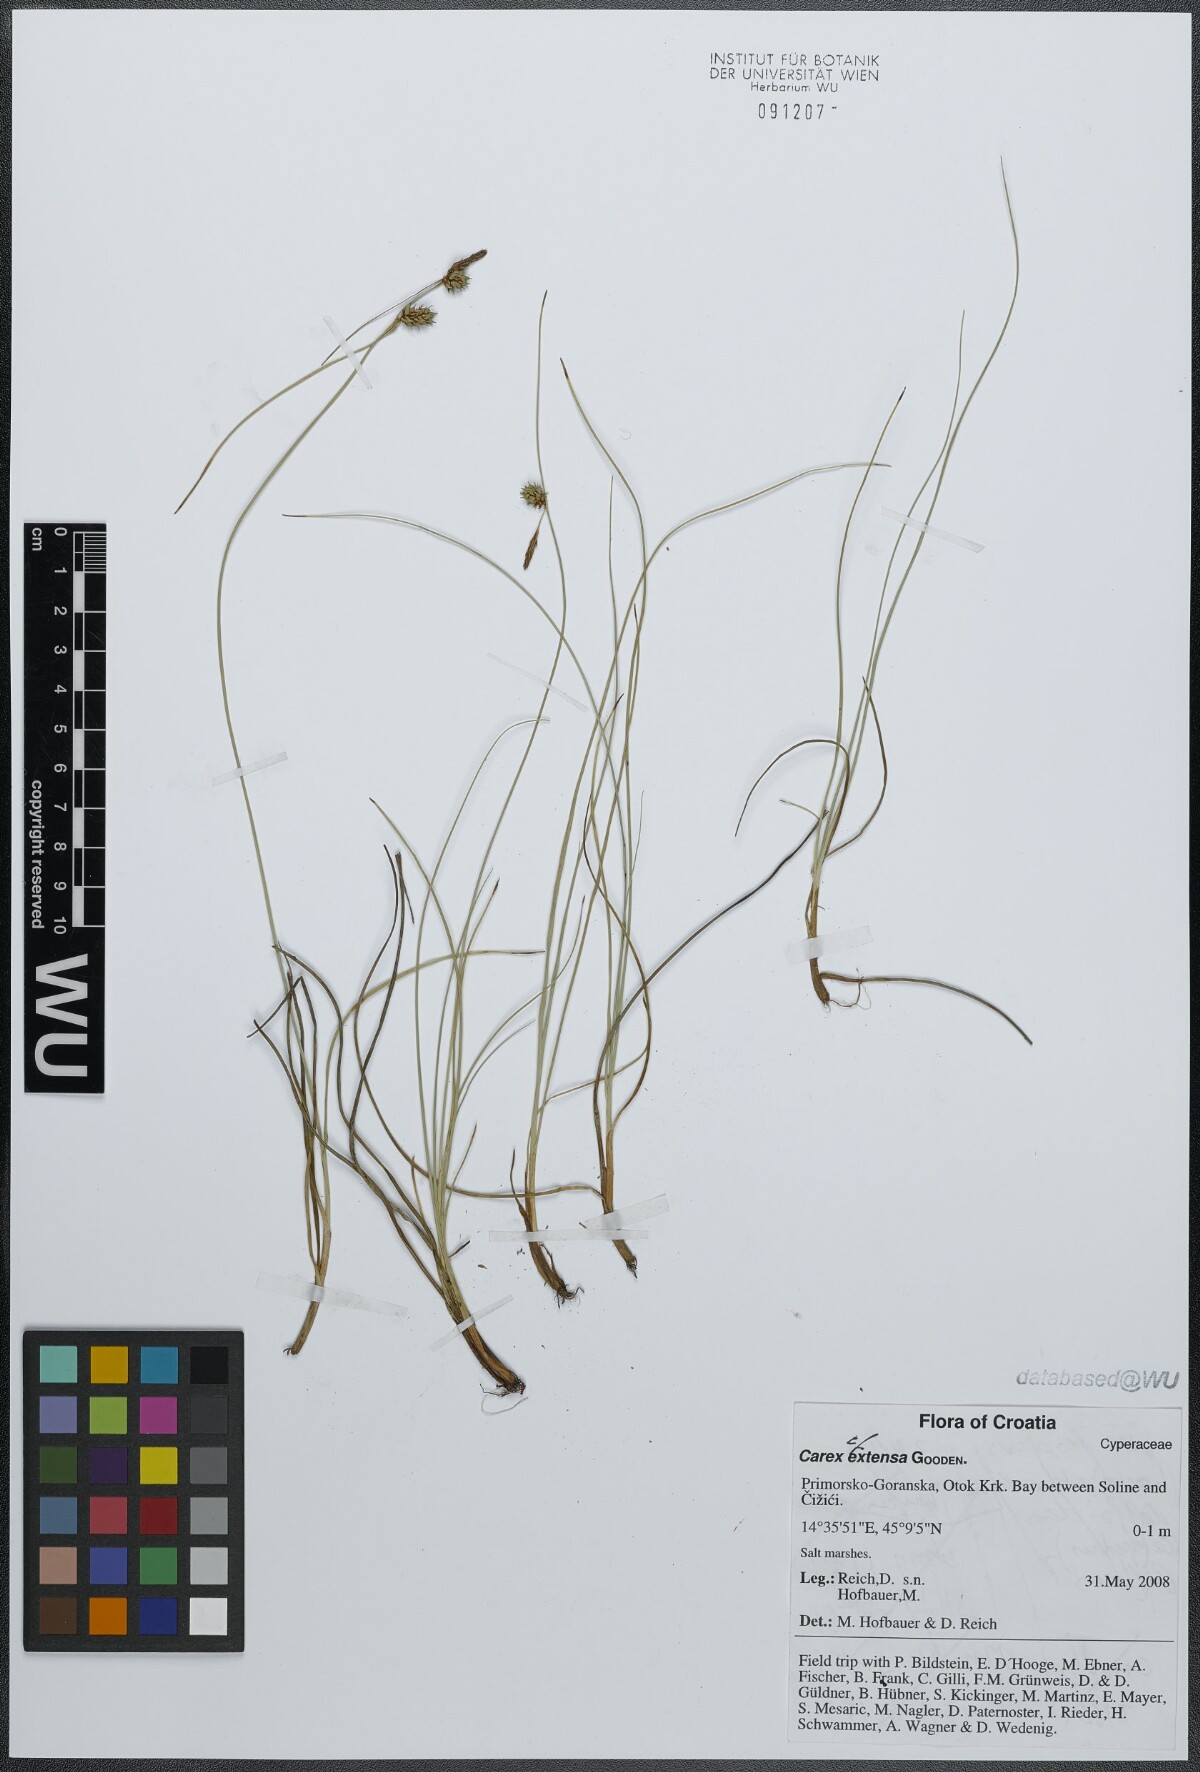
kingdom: Plantae
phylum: Tracheophyta
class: Liliopsida
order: Poales
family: Cyperaceae
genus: Carex
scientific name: Carex extensa
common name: Long-bracted sedge
